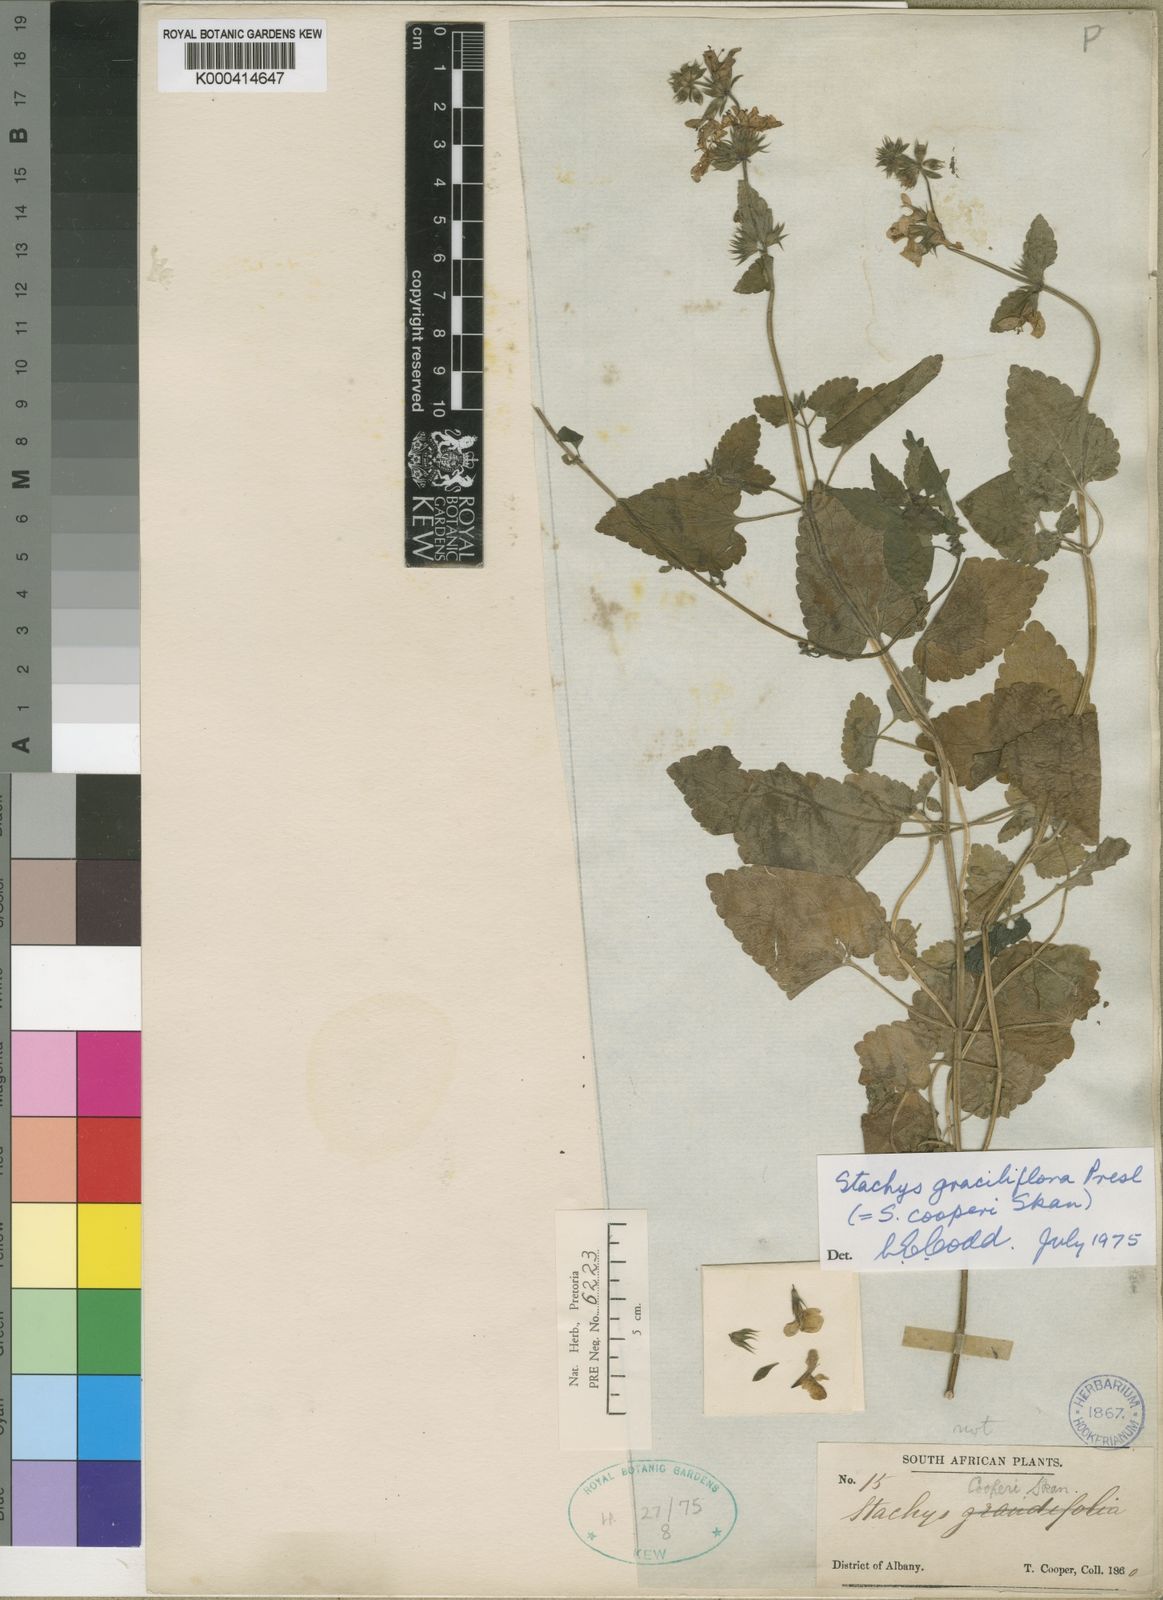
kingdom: Plantae
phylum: Tracheophyta
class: Magnoliopsida
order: Lamiales
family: Lamiaceae
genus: Stachys
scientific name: Stachys graciliflora
